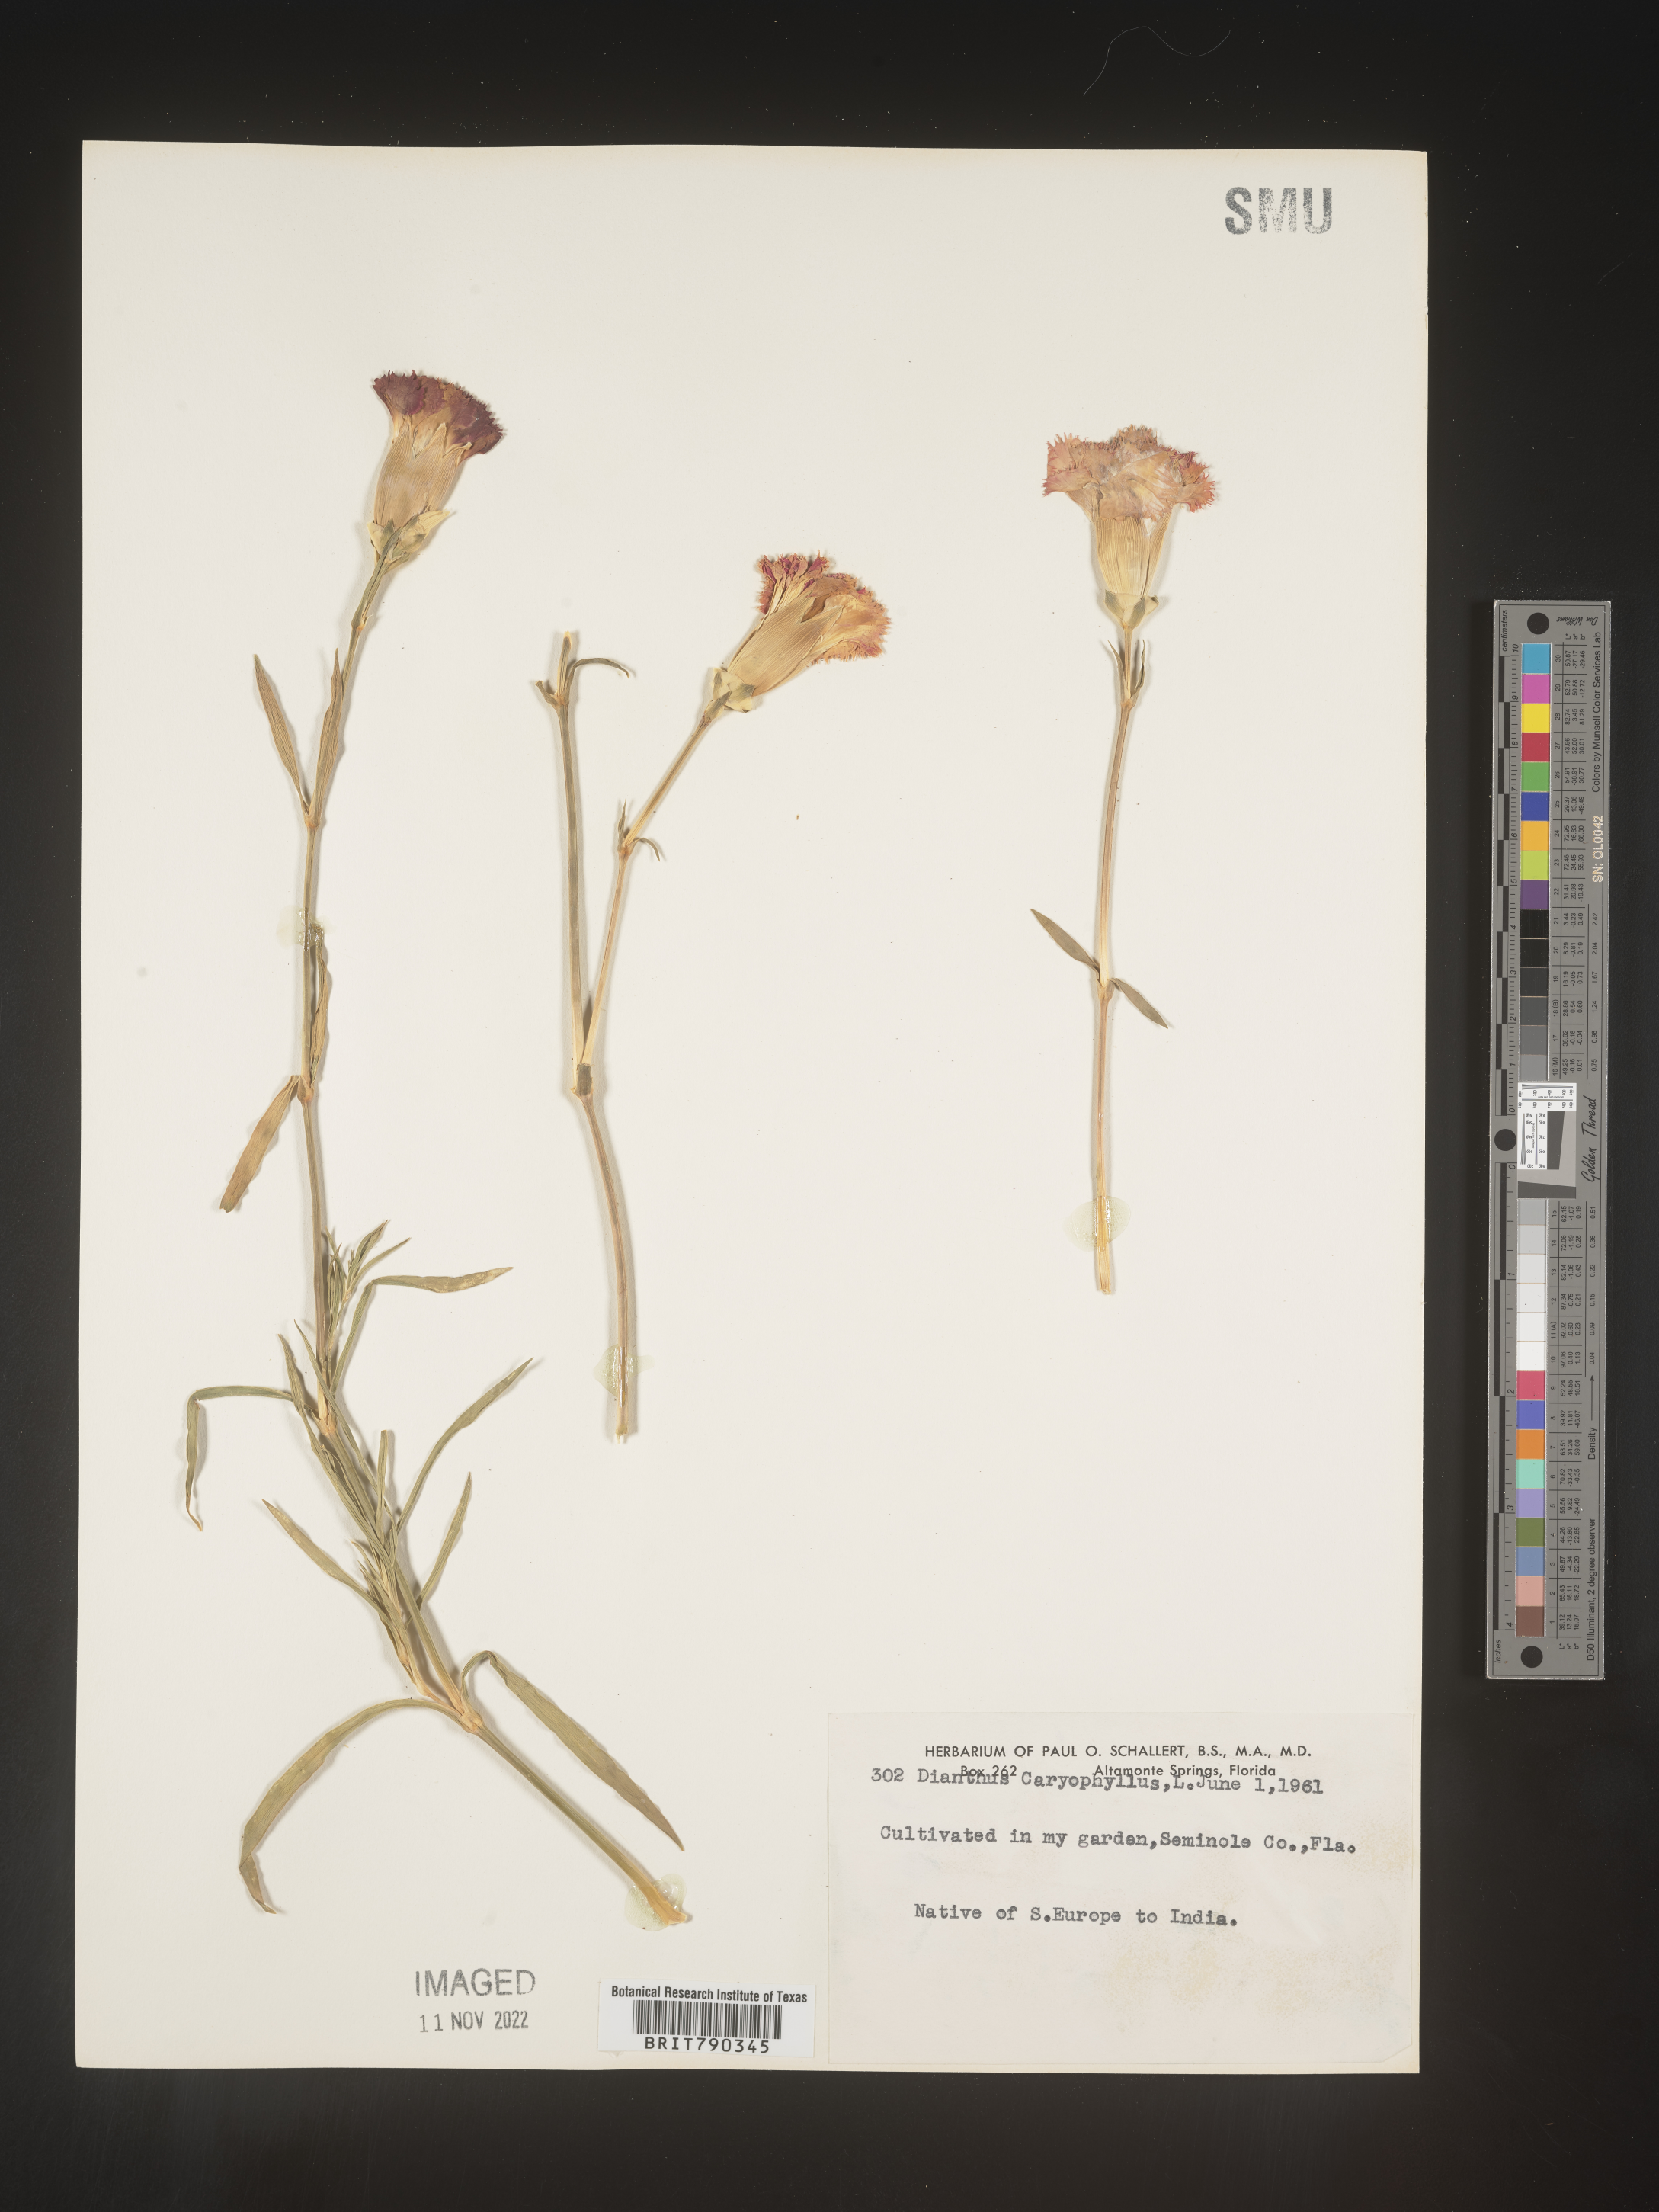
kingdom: Plantae
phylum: Tracheophyta
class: Magnoliopsida
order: Caryophyllales
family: Caryophyllaceae
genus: Dianthus
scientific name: Dianthus
